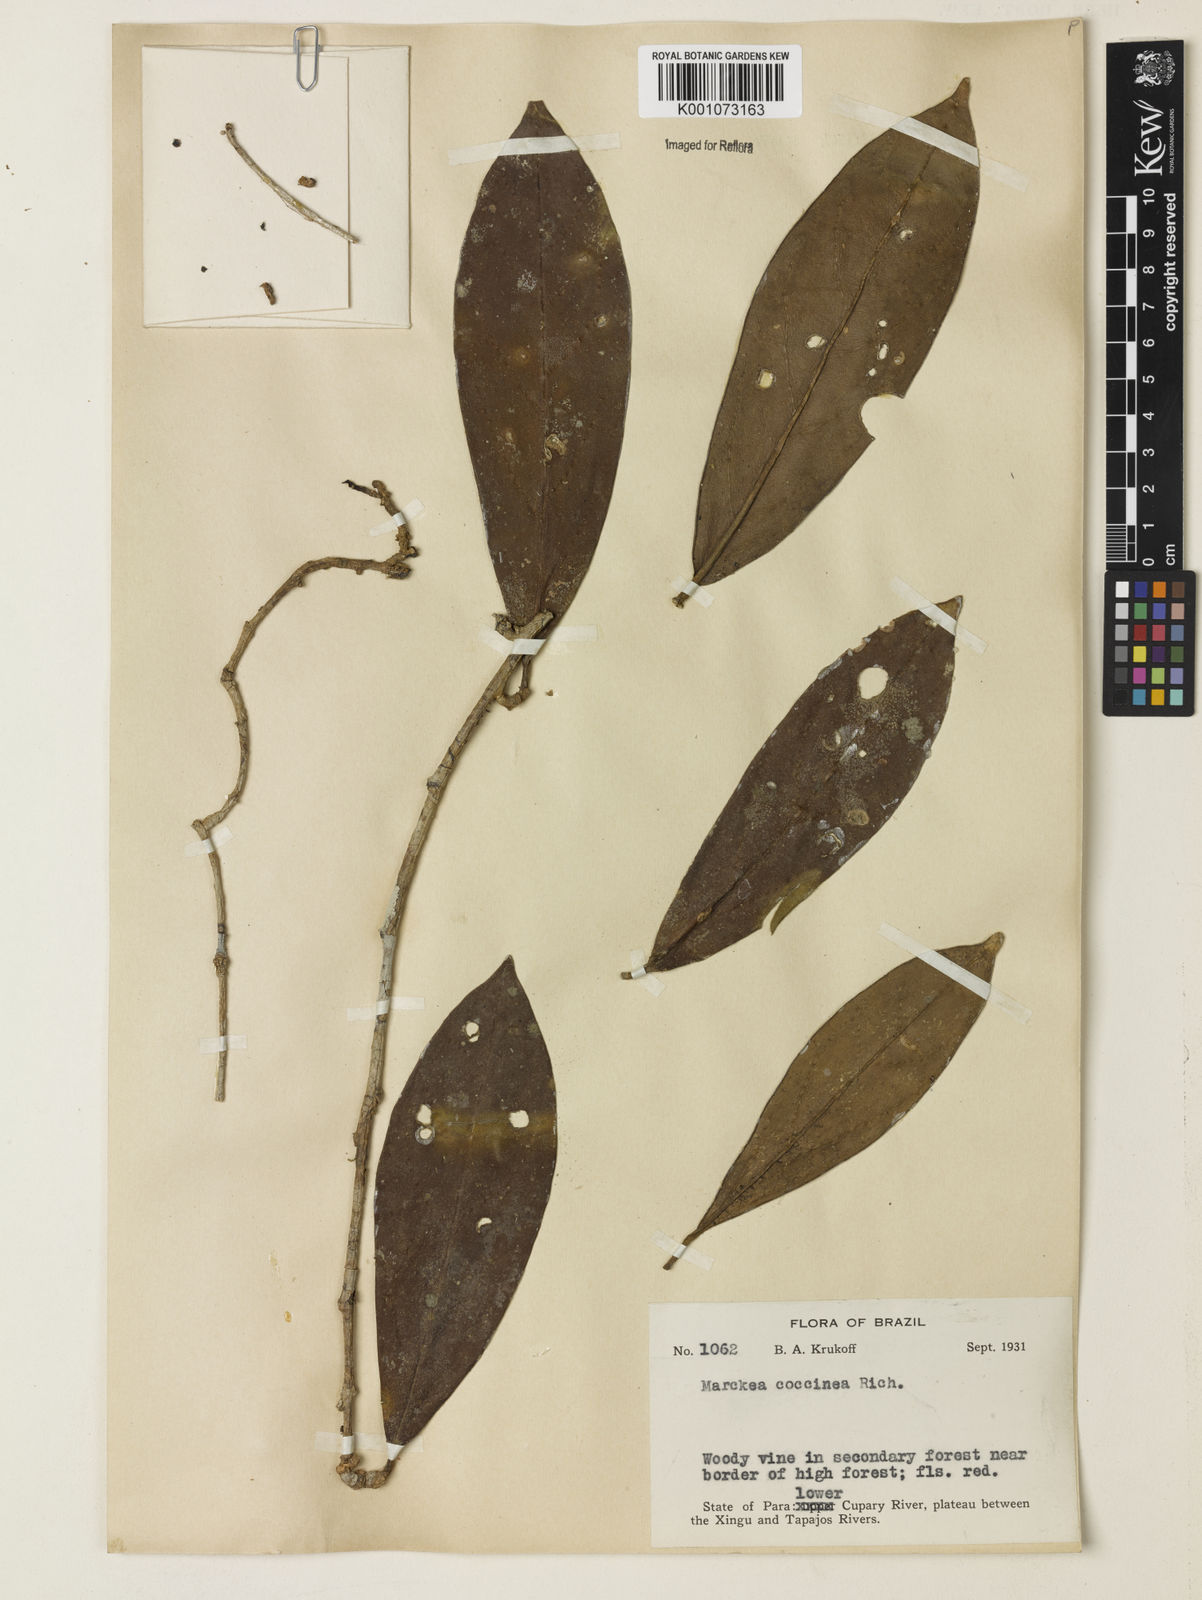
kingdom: Plantae
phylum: Tracheophyta
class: Magnoliopsida
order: Solanales
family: Solanaceae
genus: Markea
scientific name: Markea coccinea
